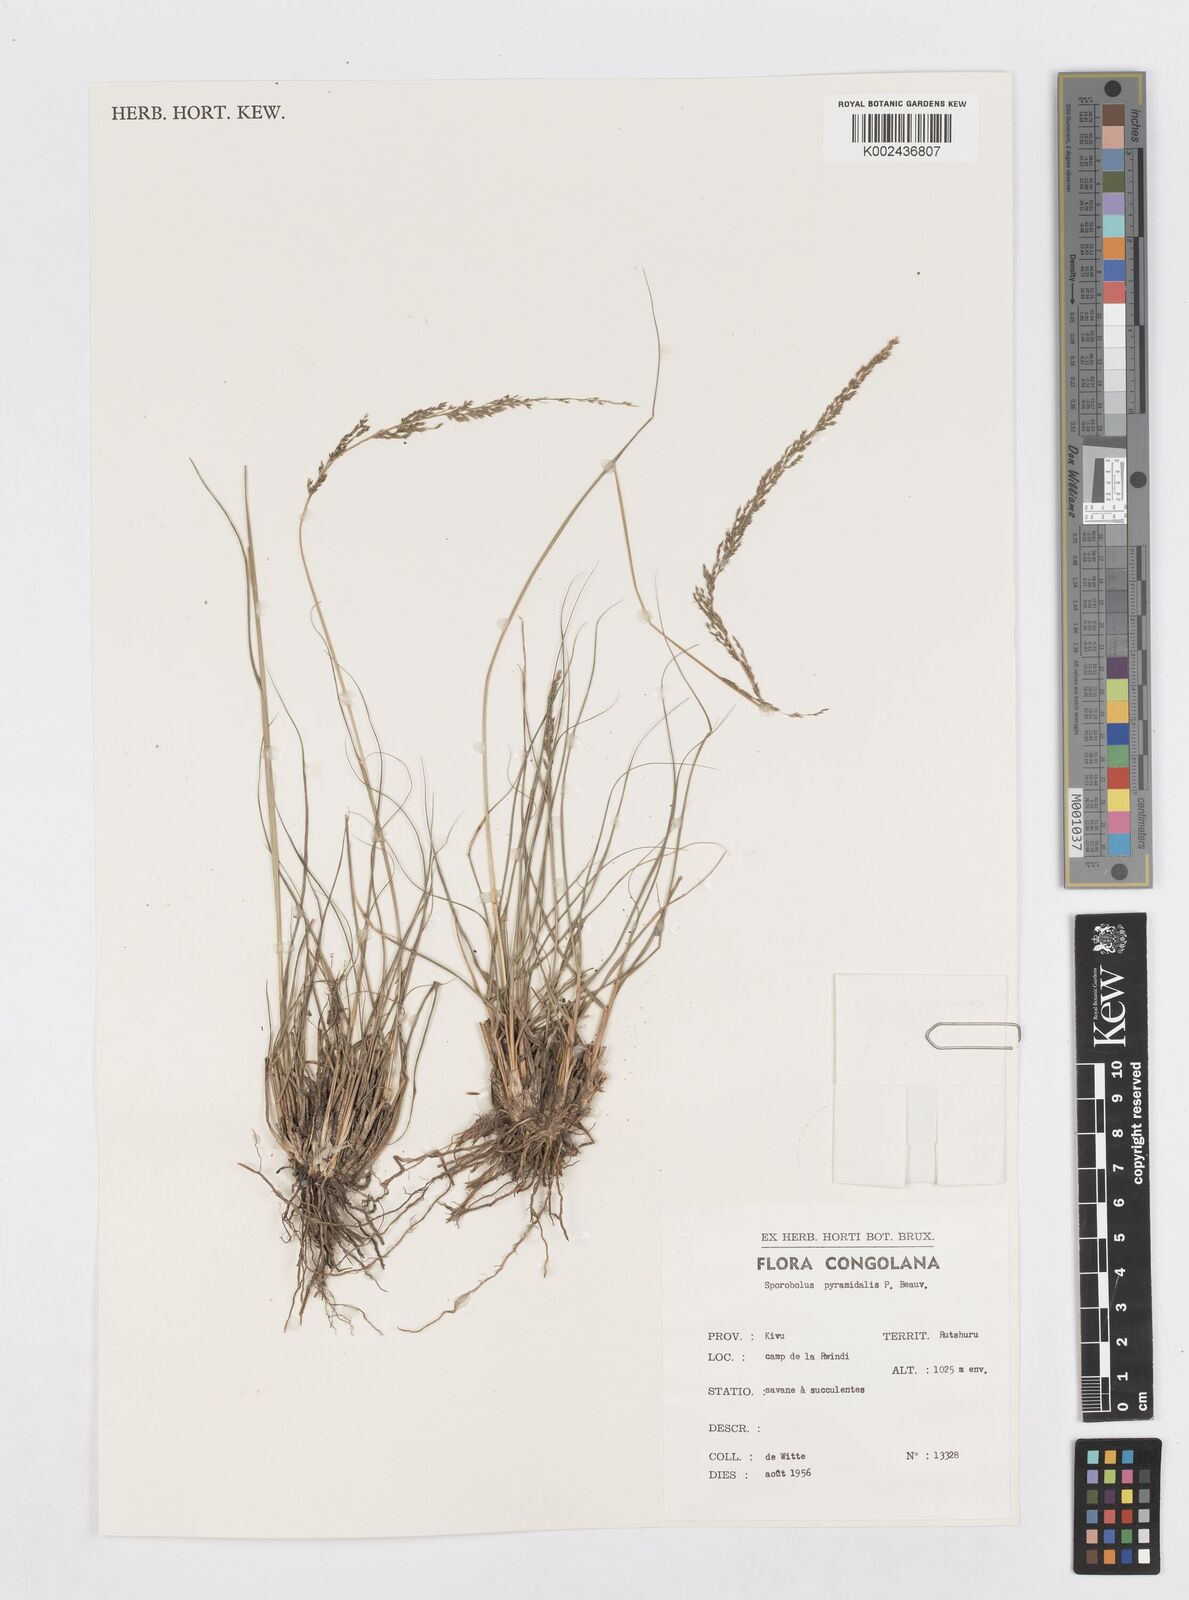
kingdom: Plantae
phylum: Tracheophyta
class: Liliopsida
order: Poales
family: Poaceae
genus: Sporobolus
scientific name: Sporobolus pyramidalis
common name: West indian dropseed
